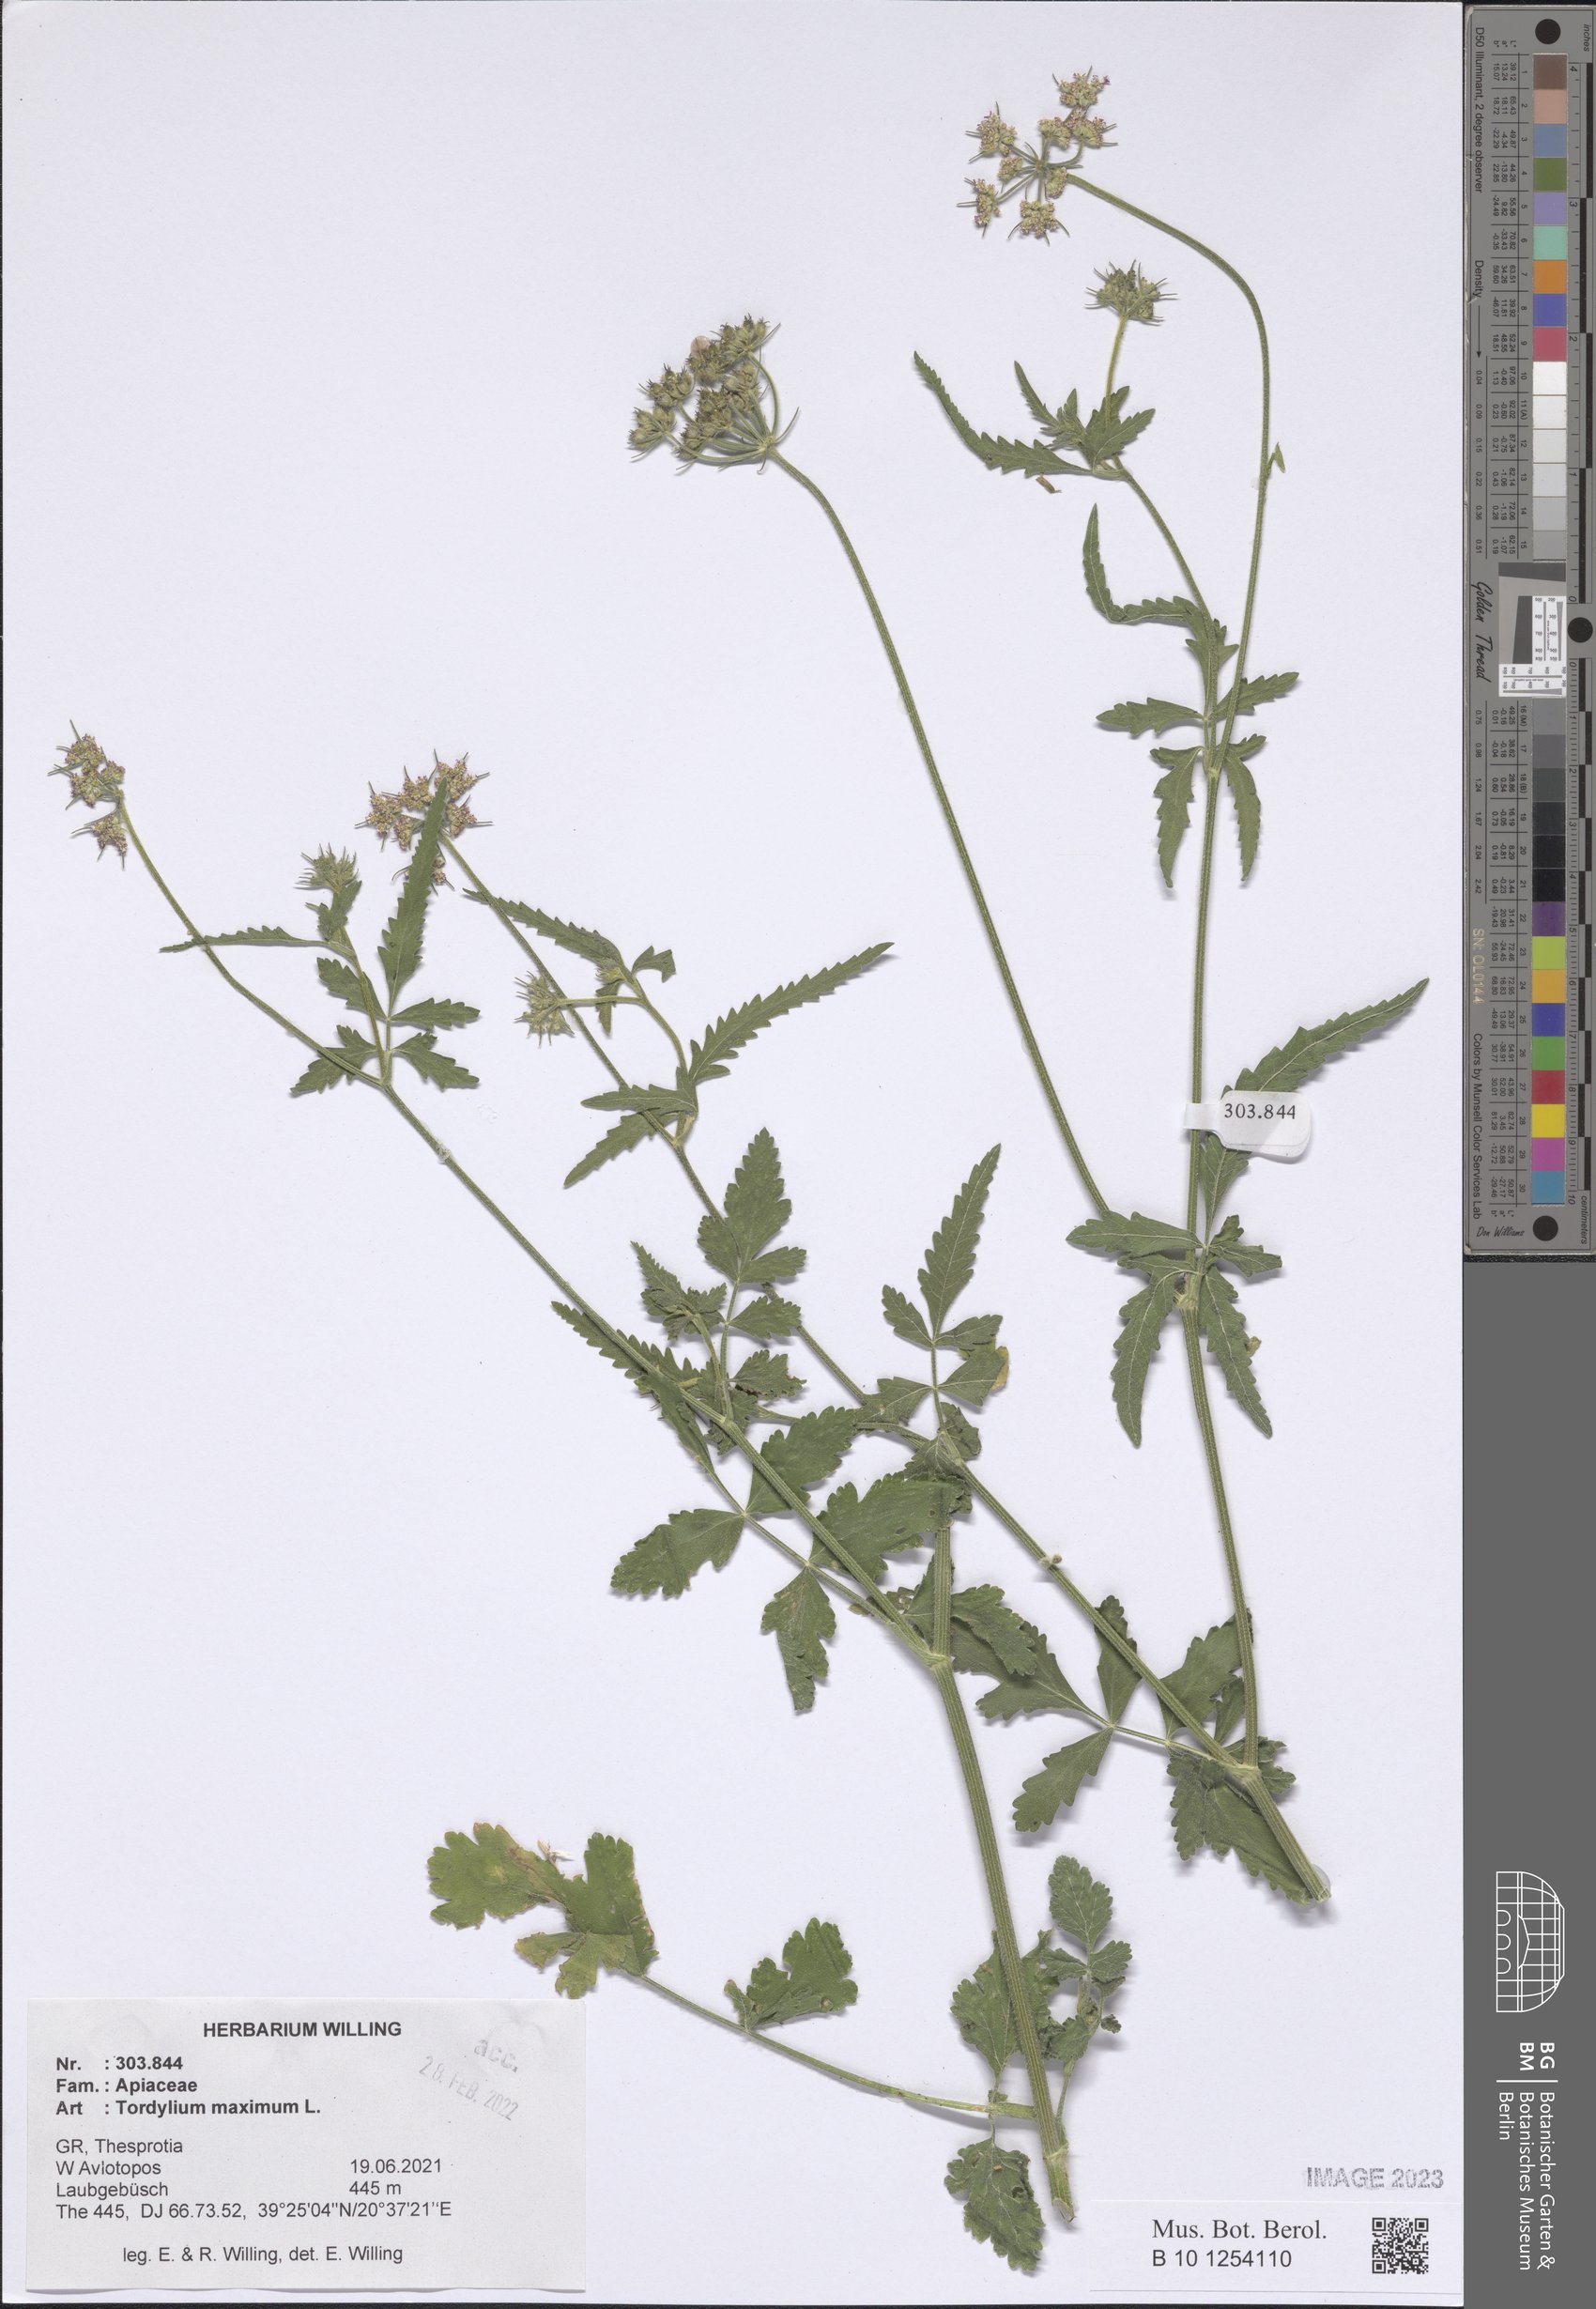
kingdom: Plantae
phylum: Tracheophyta
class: Magnoliopsida
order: Apiales
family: Apiaceae
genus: Tordylium
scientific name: Tordylium maximum
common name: Hartwort
